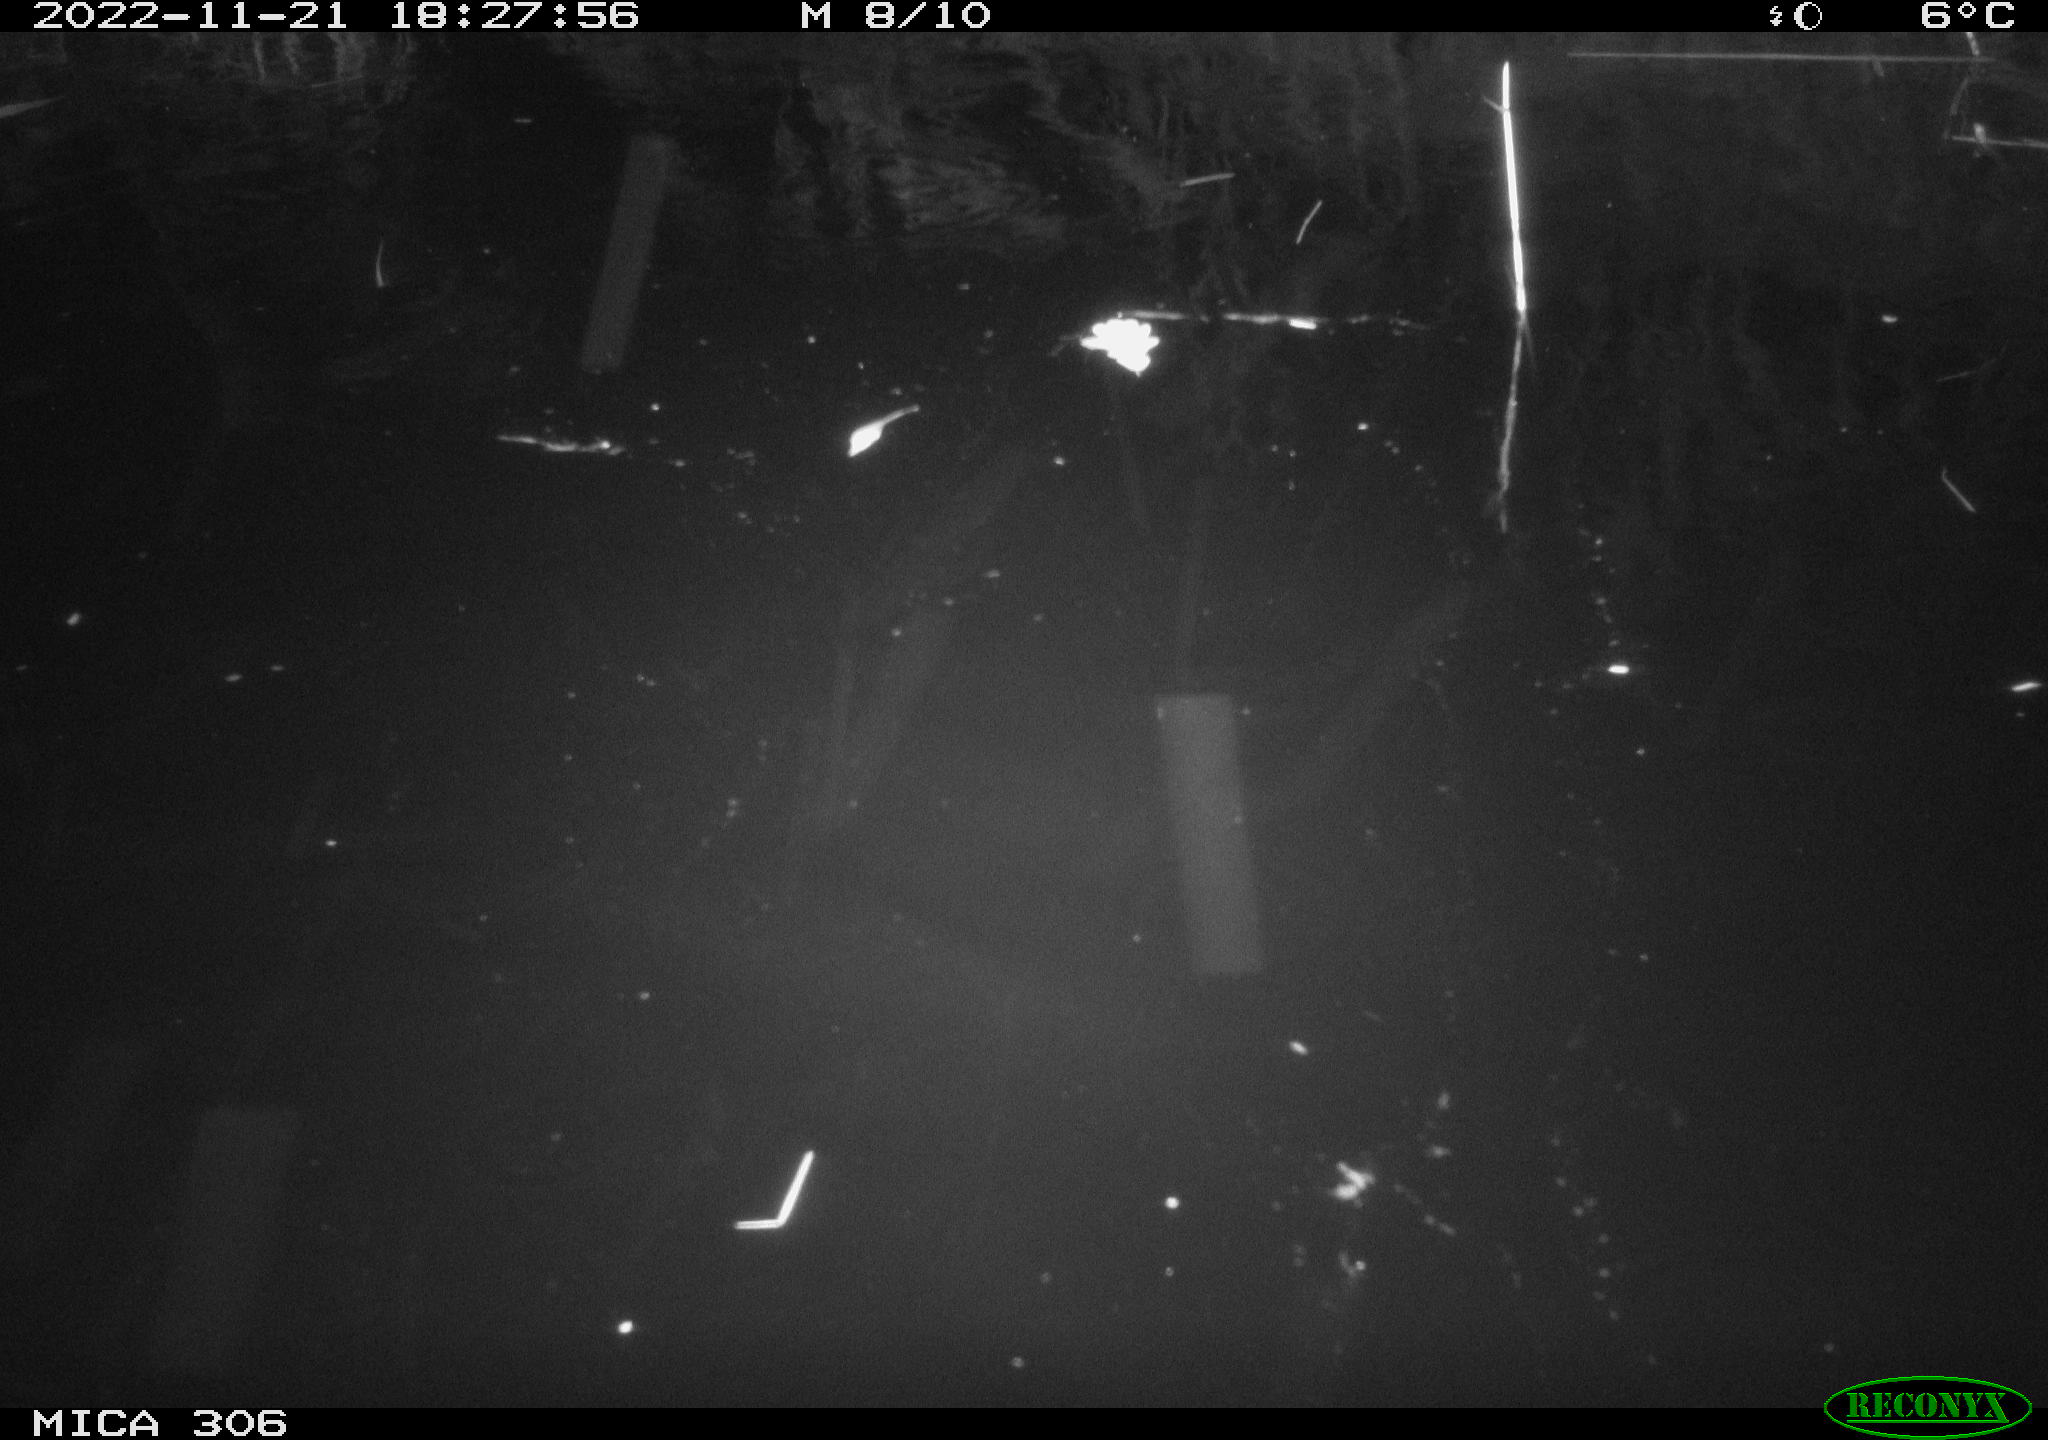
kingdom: Animalia
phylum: Chordata
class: Mammalia
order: Rodentia
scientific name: Rodentia
